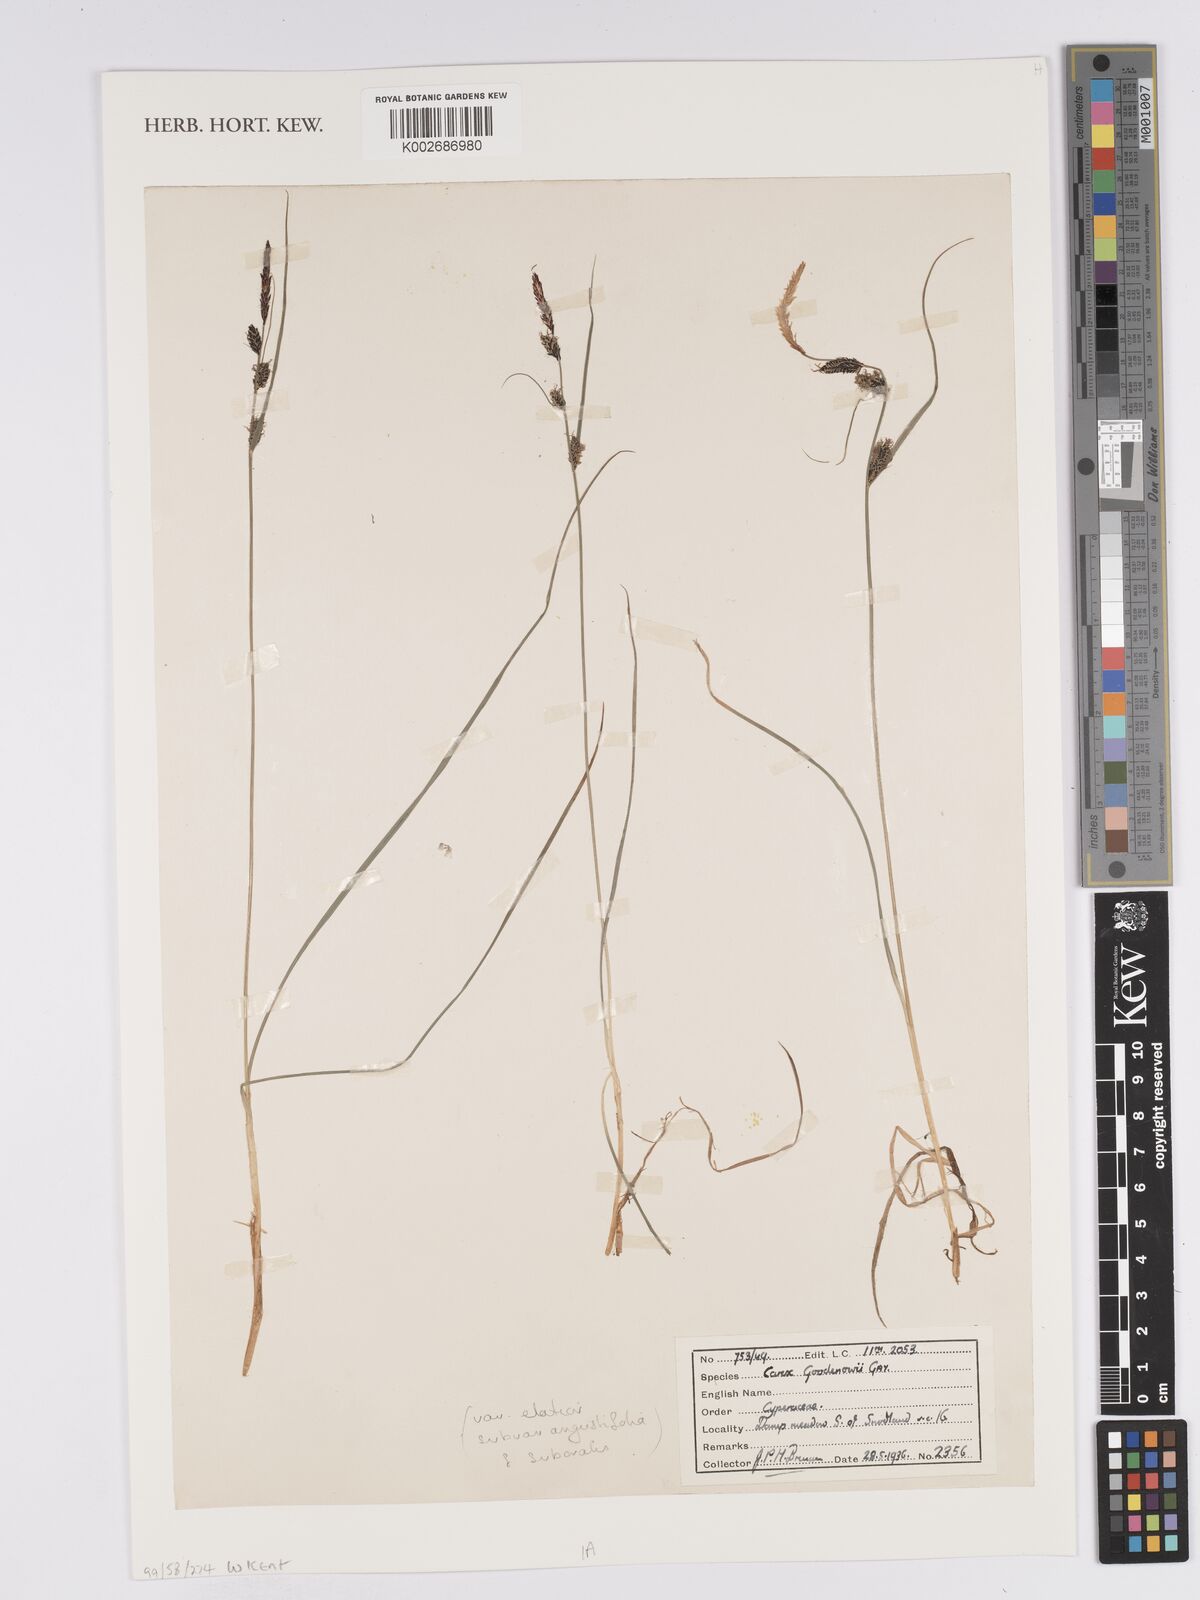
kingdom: Plantae
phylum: Tracheophyta
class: Liliopsida
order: Poales
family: Cyperaceae
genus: Carex
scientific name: Carex nigra
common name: Common sedge
